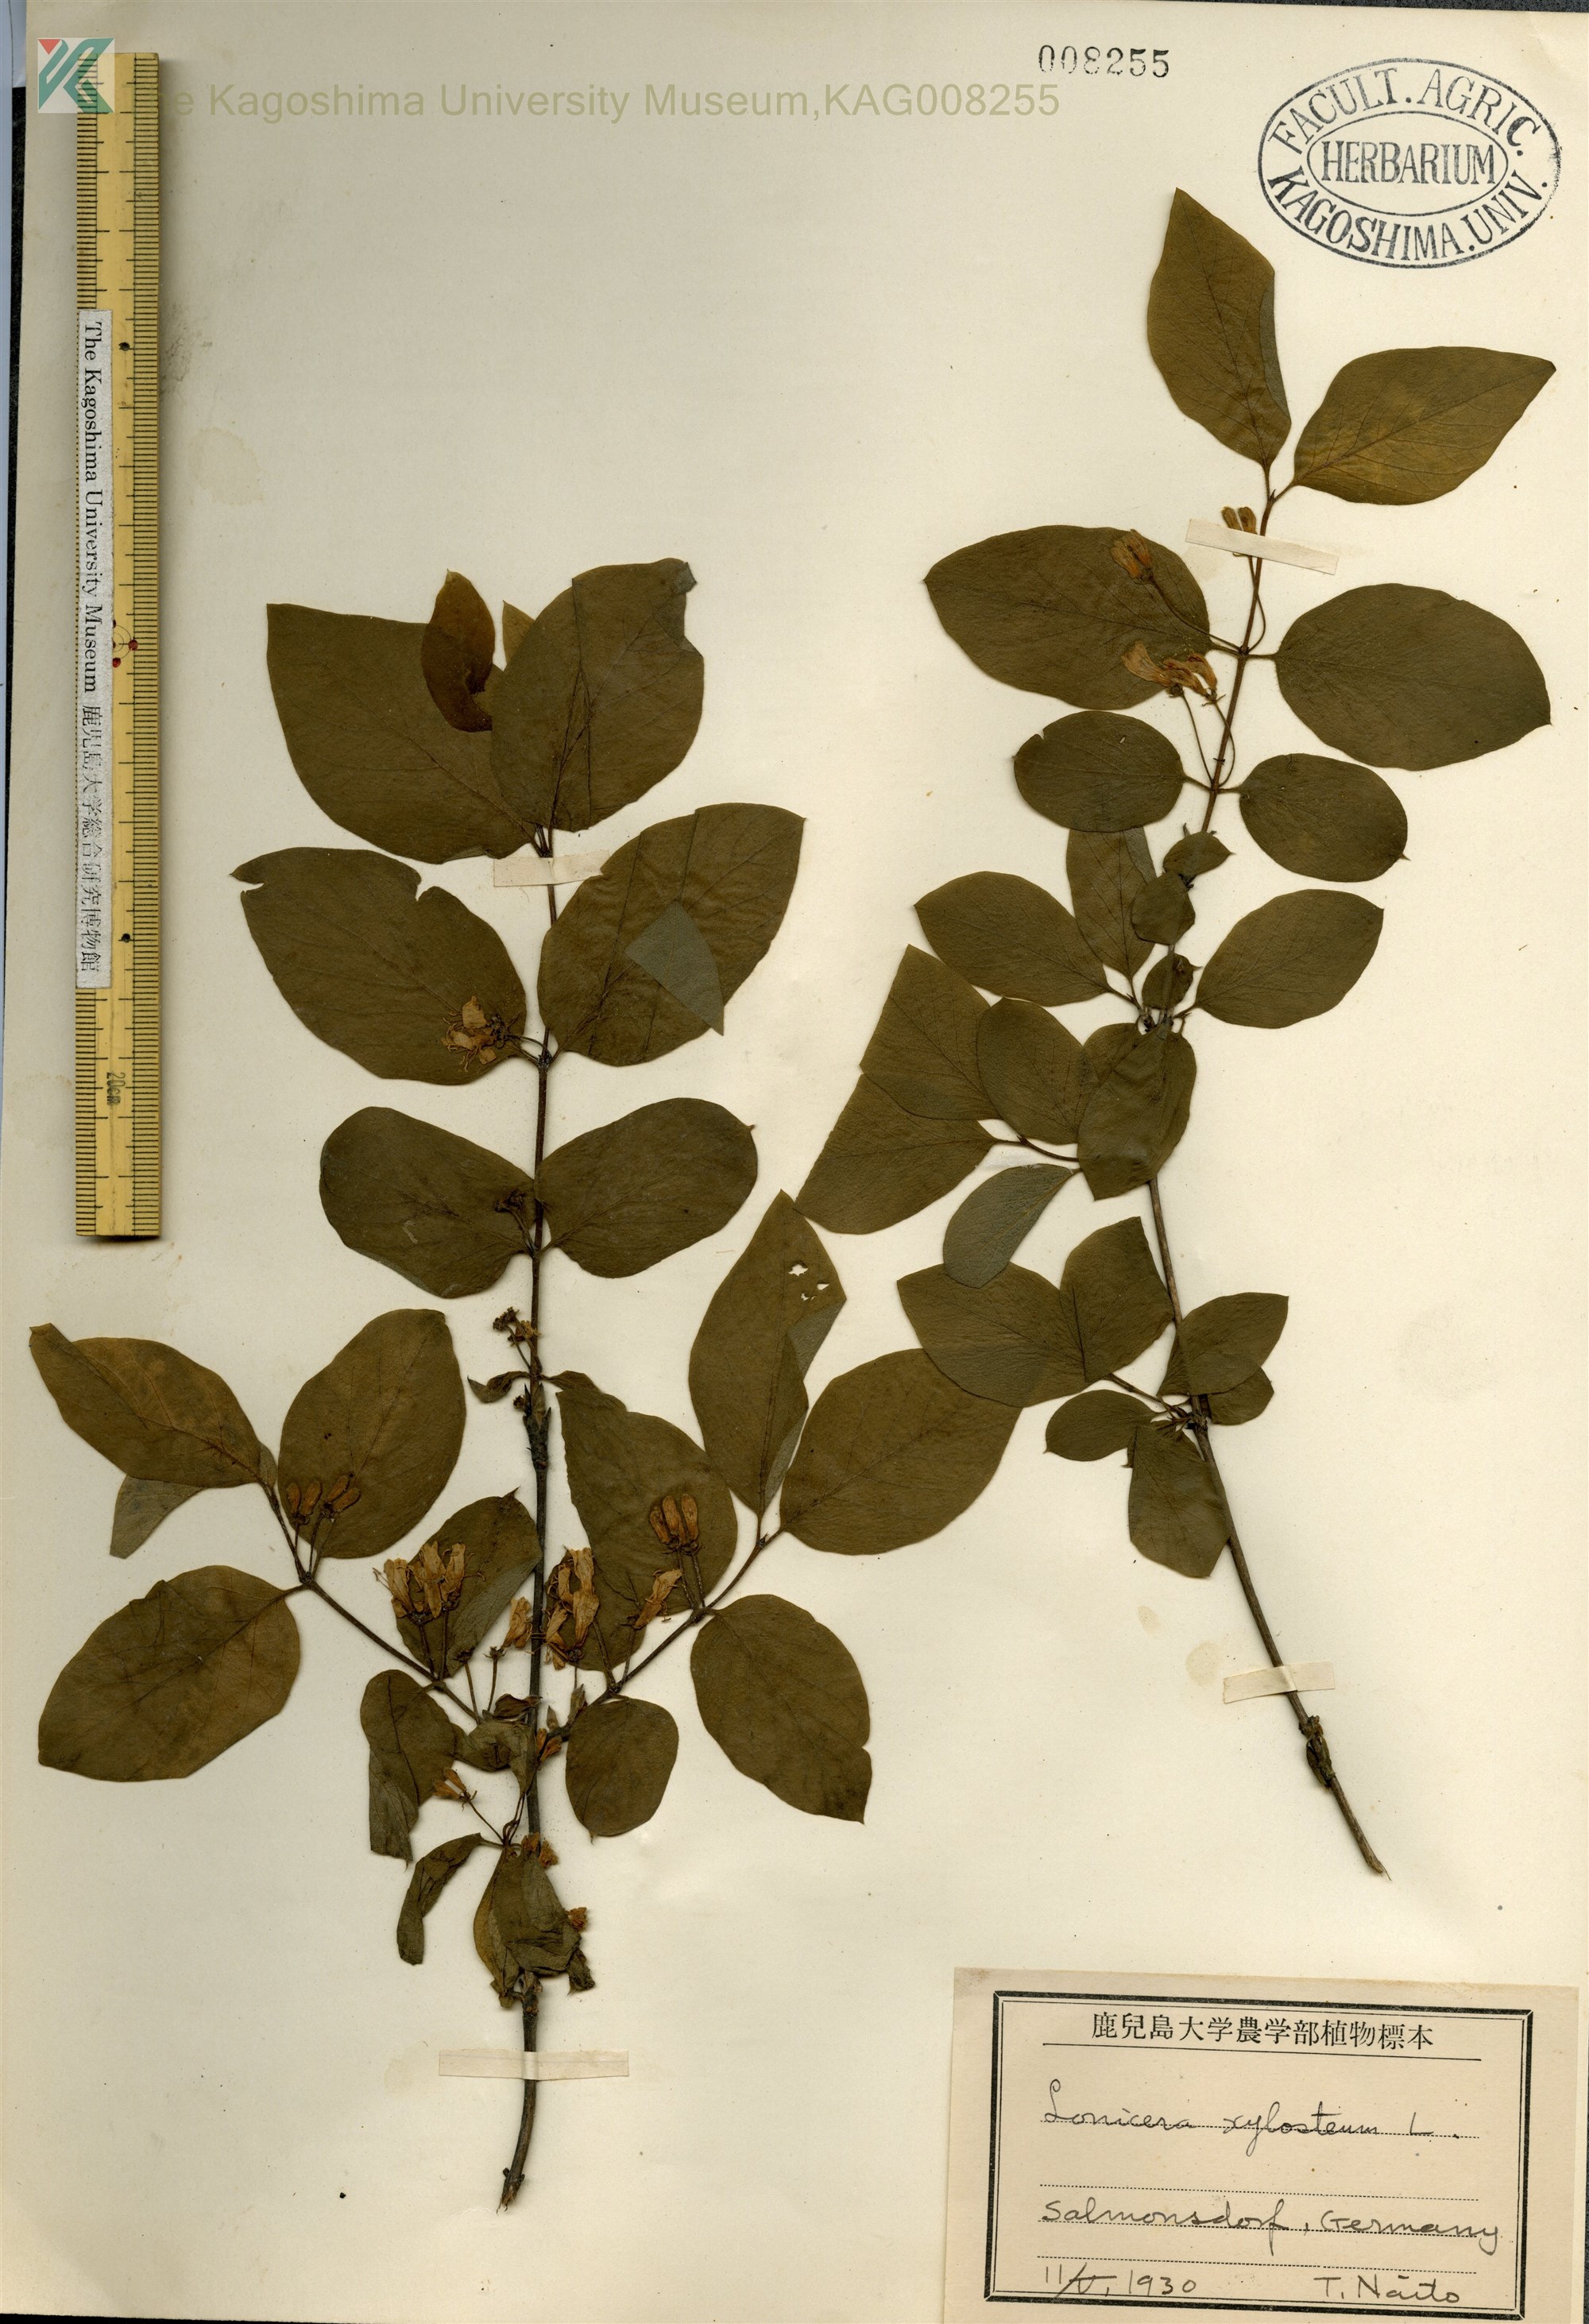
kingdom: Plantae
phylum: Tracheophyta
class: Magnoliopsida
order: Dipsacales
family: Caprifoliaceae
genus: Lonicera
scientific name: Lonicera xylosteum
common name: Fly honeysuckle
